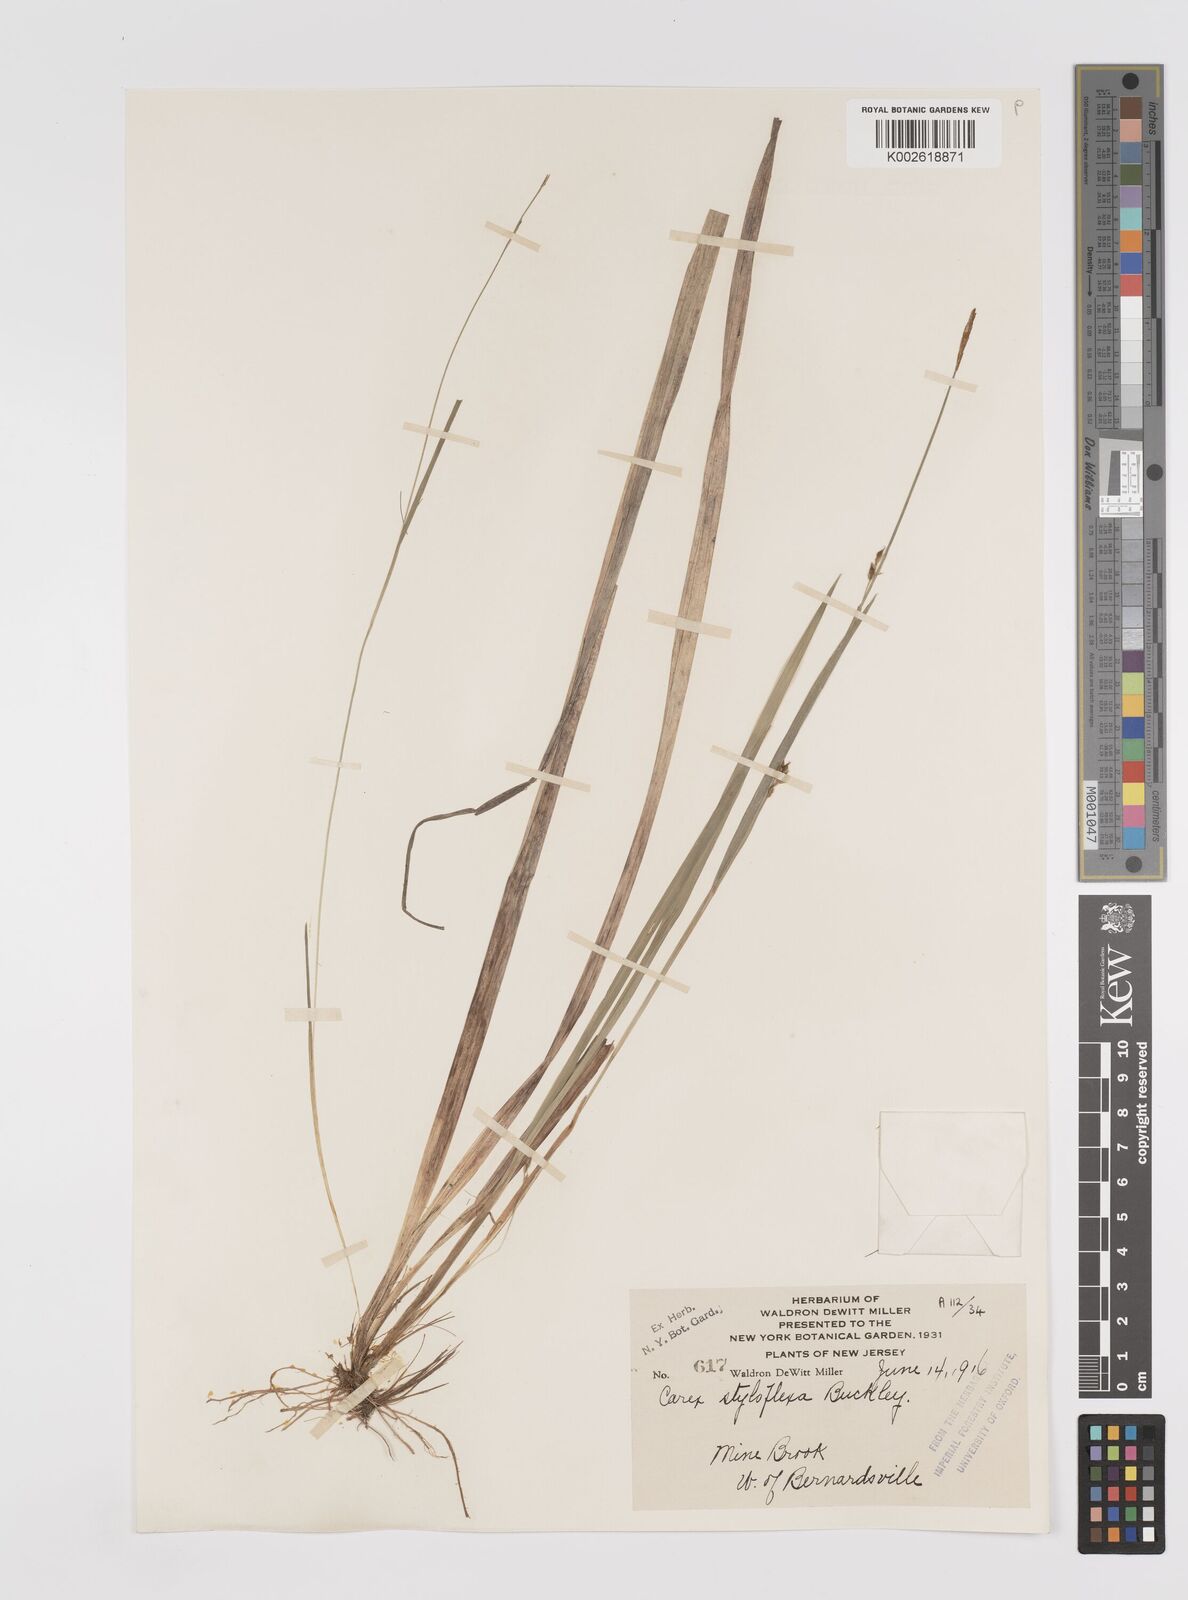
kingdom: Plantae
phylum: Tracheophyta
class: Liliopsida
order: Poales
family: Cyperaceae
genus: Carex
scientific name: Carex styloflexa
